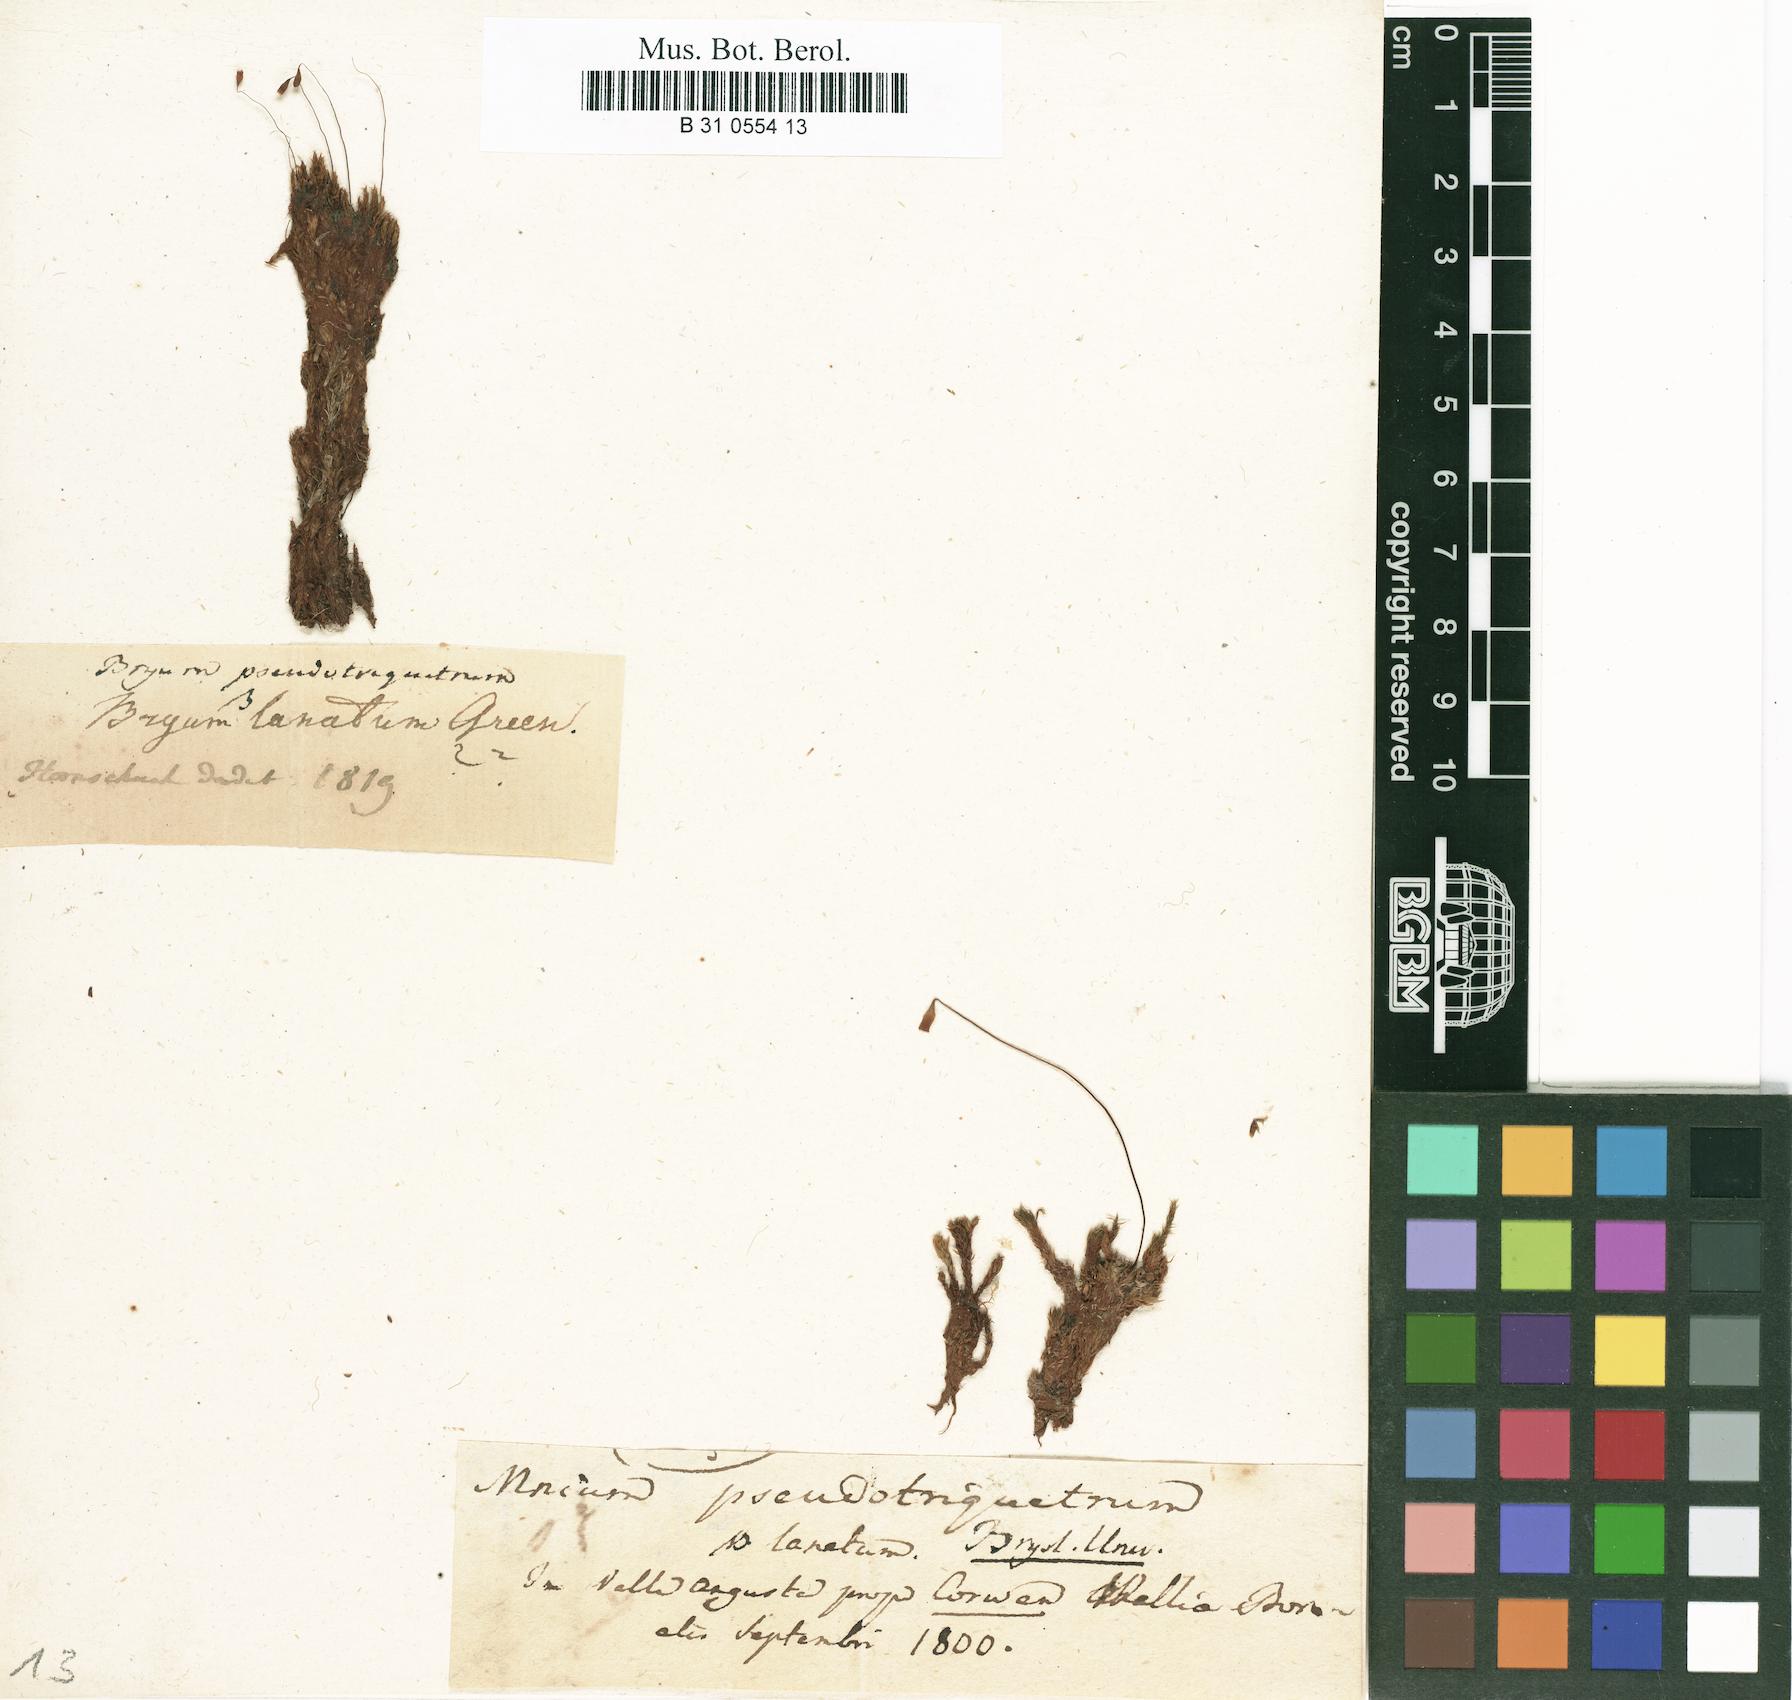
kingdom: Plantae
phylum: Bryophyta
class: Bryopsida
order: Bryales
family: Bryaceae
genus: Ptychostomum
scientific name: Ptychostomum pseudotriquetrum
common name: Long-leaved thread moss
